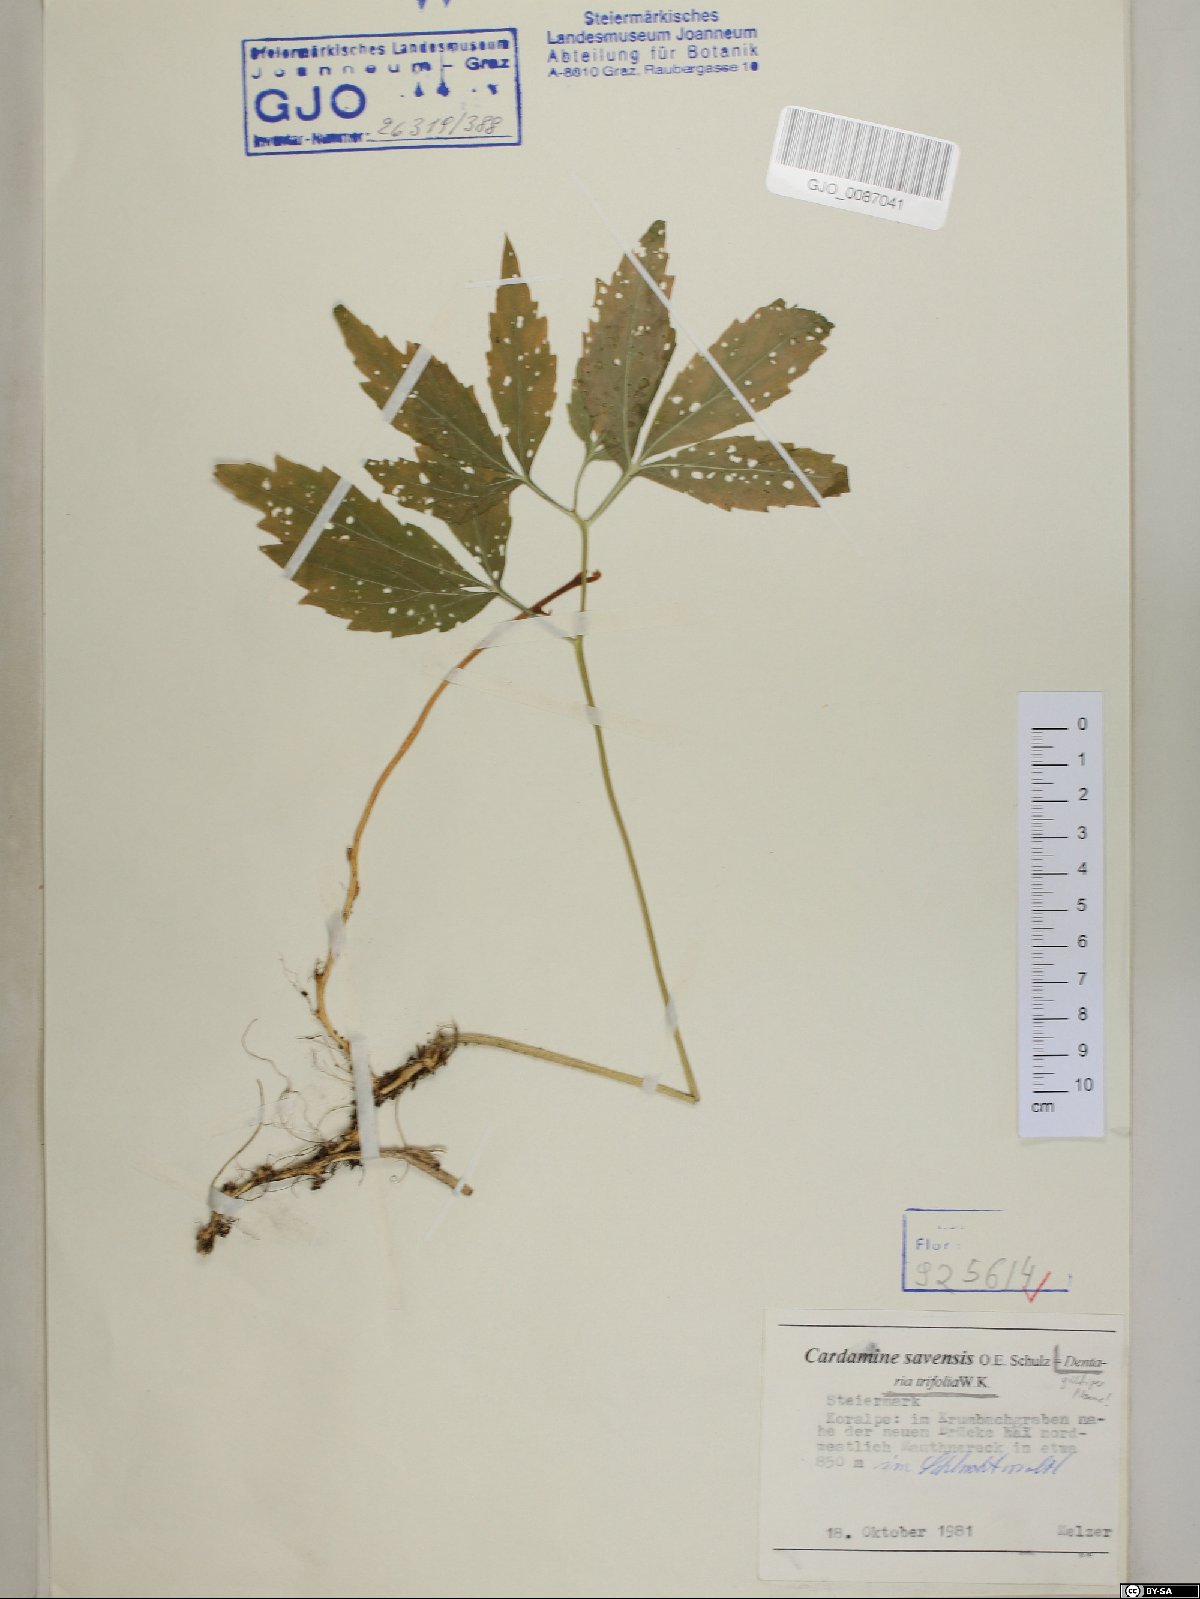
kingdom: Plantae
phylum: Tracheophyta
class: Magnoliopsida
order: Brassicales
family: Brassicaceae
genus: Cardamine
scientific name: Cardamine waldsteinii
